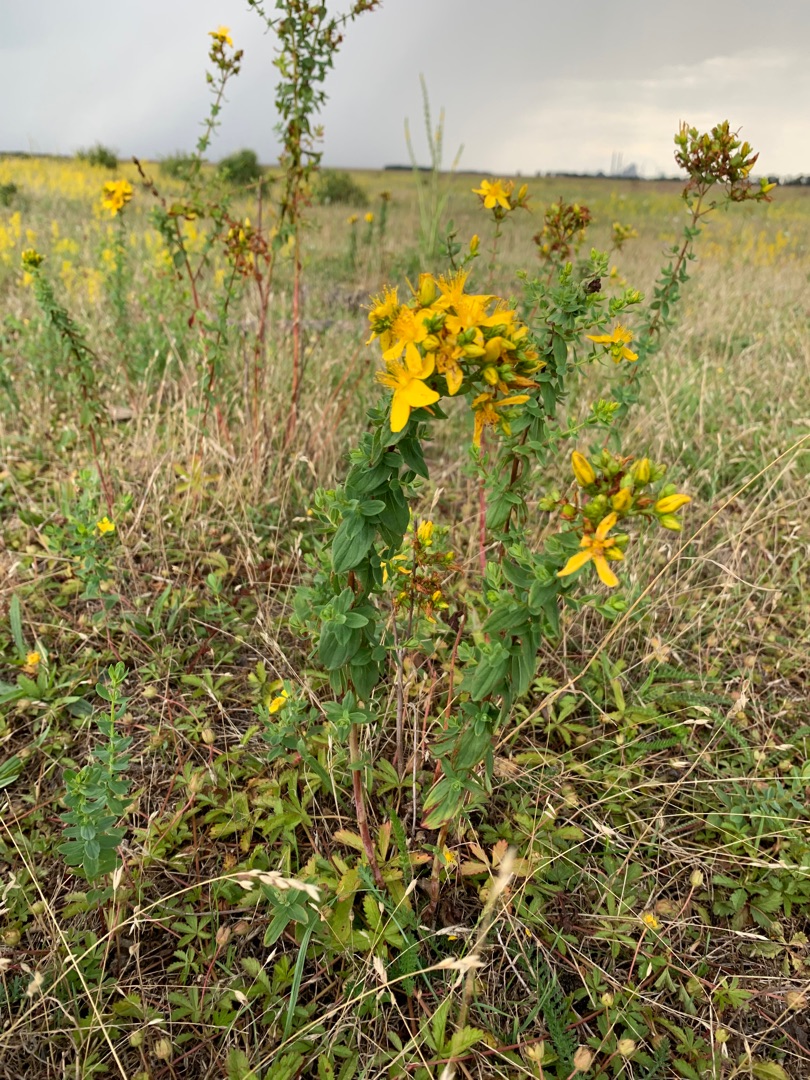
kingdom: Plantae
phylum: Tracheophyta
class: Magnoliopsida
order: Malpighiales
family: Hypericaceae
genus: Hypericum
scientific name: Hypericum perforatum
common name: Prikbladet perikon
